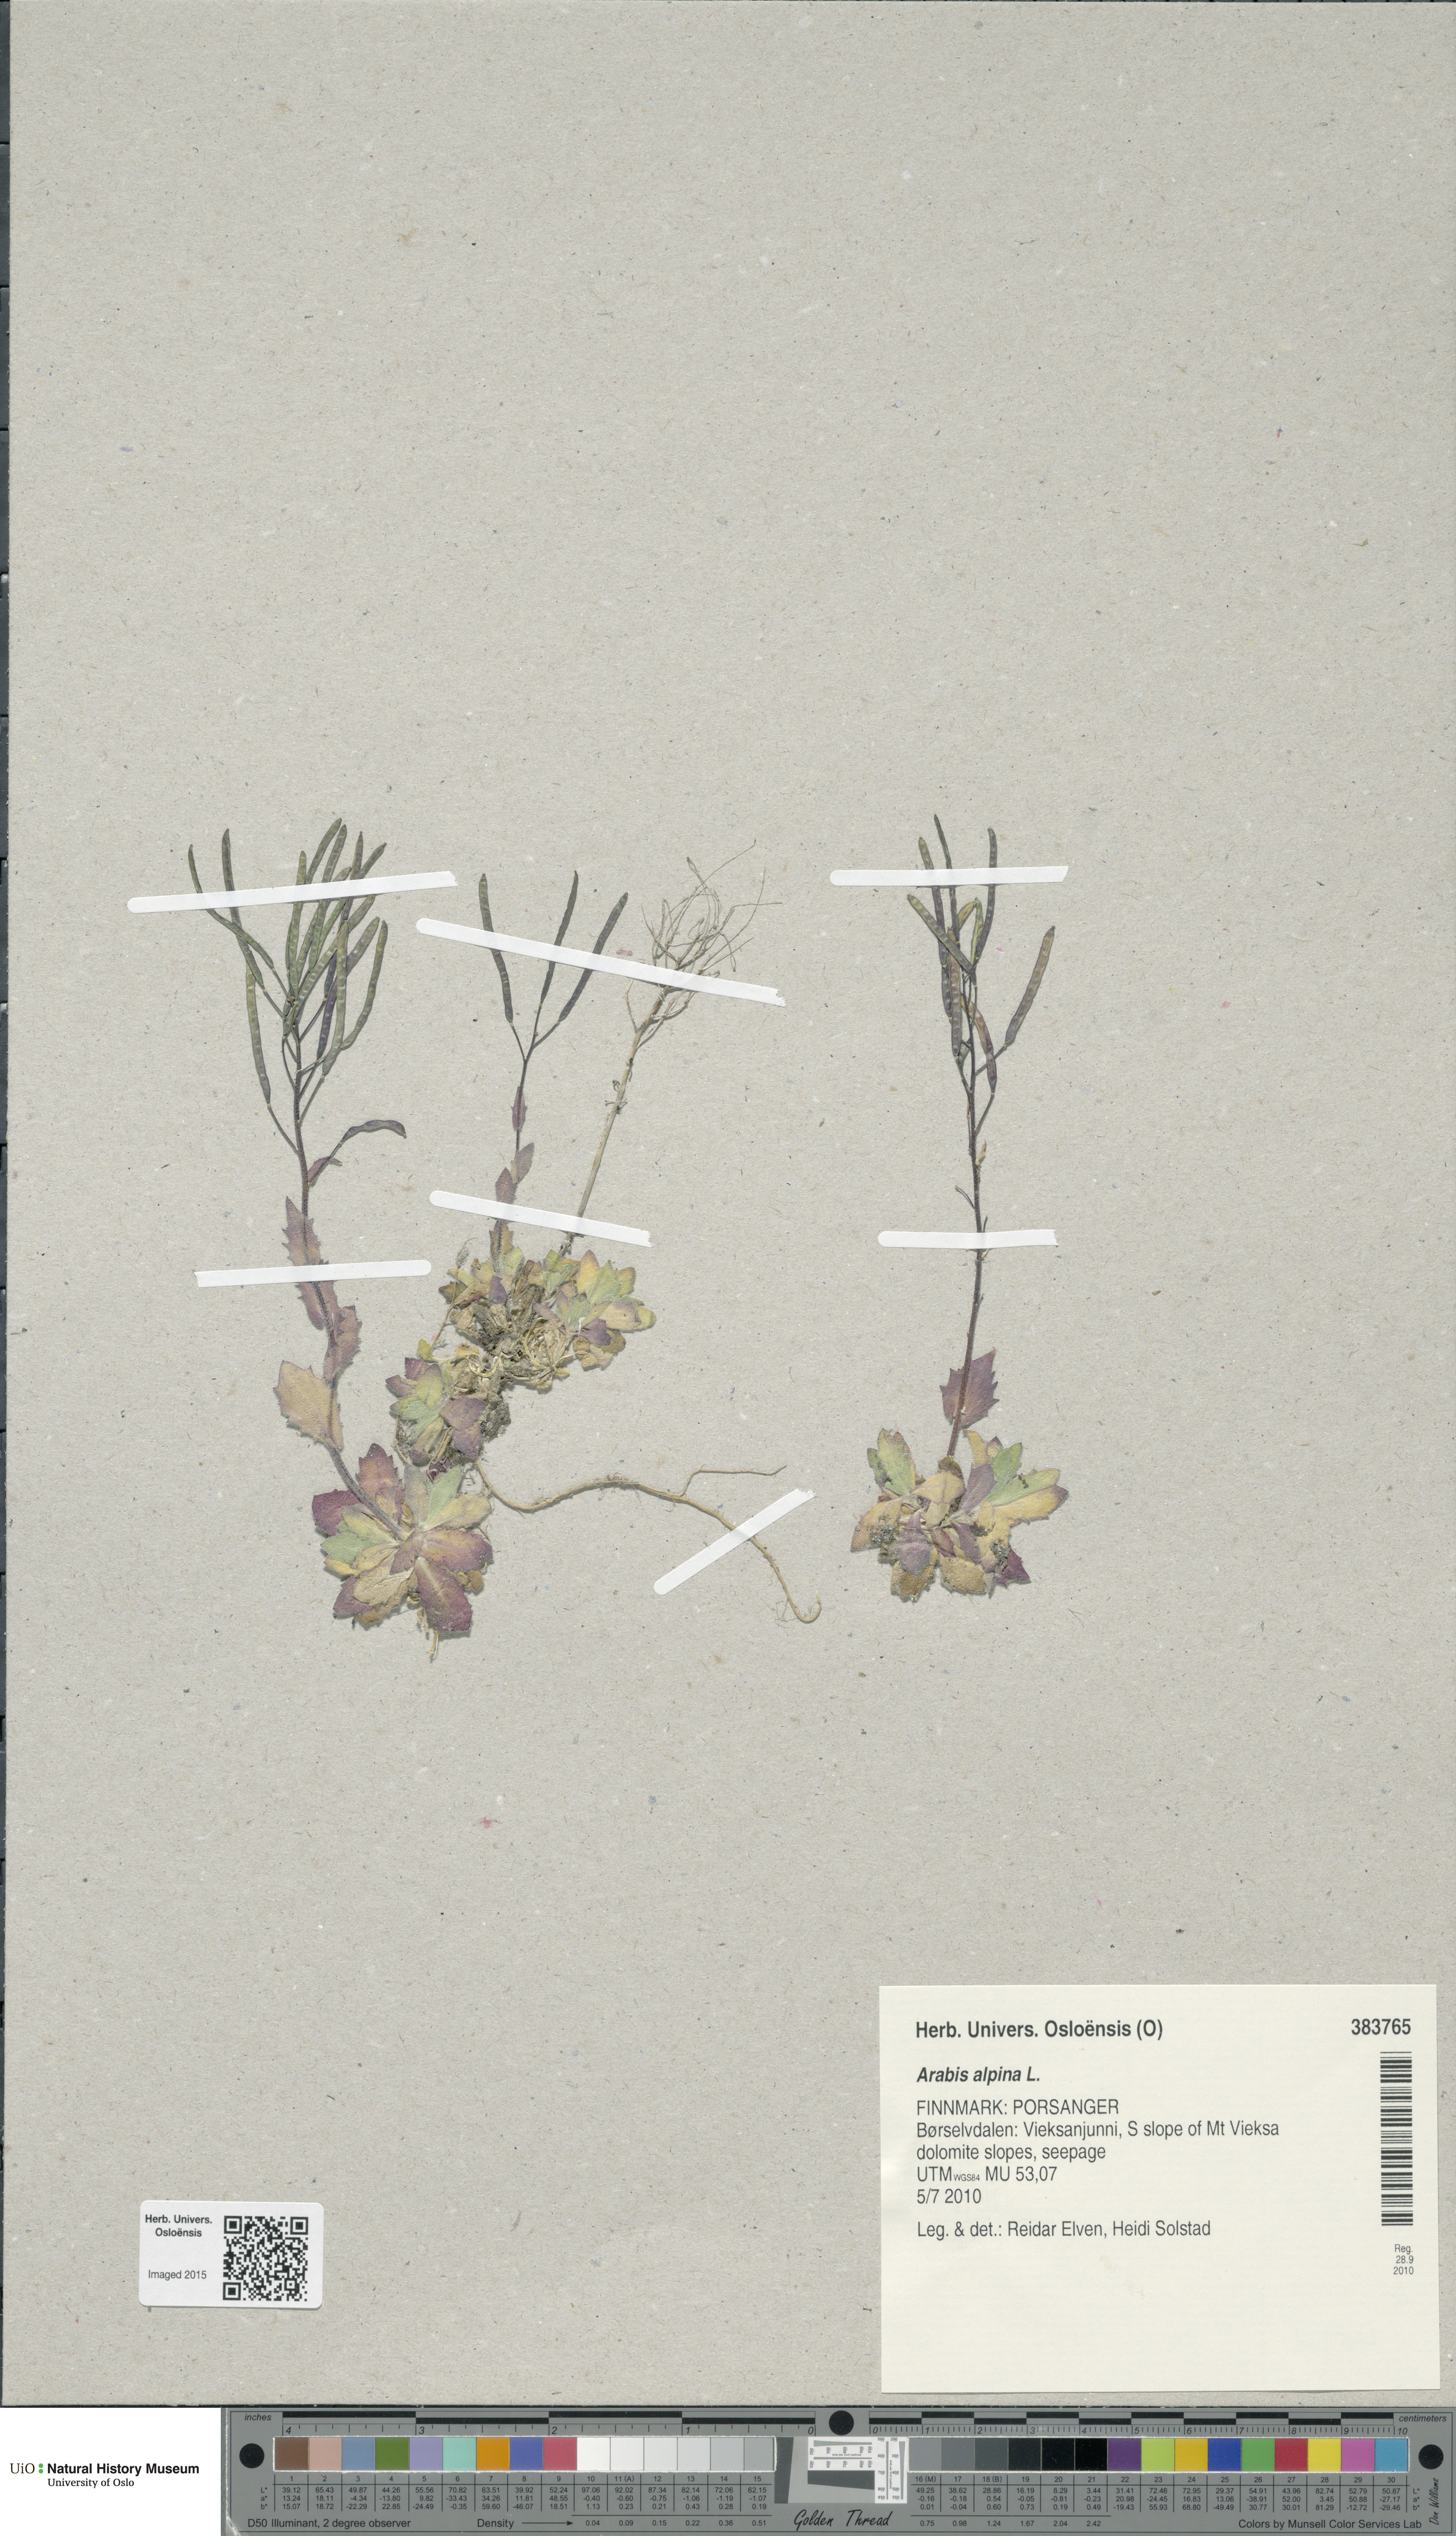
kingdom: Plantae
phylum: Tracheophyta
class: Magnoliopsida
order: Brassicales
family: Brassicaceae
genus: Arabis
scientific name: Arabis alpina
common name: Alpine rock-cress
